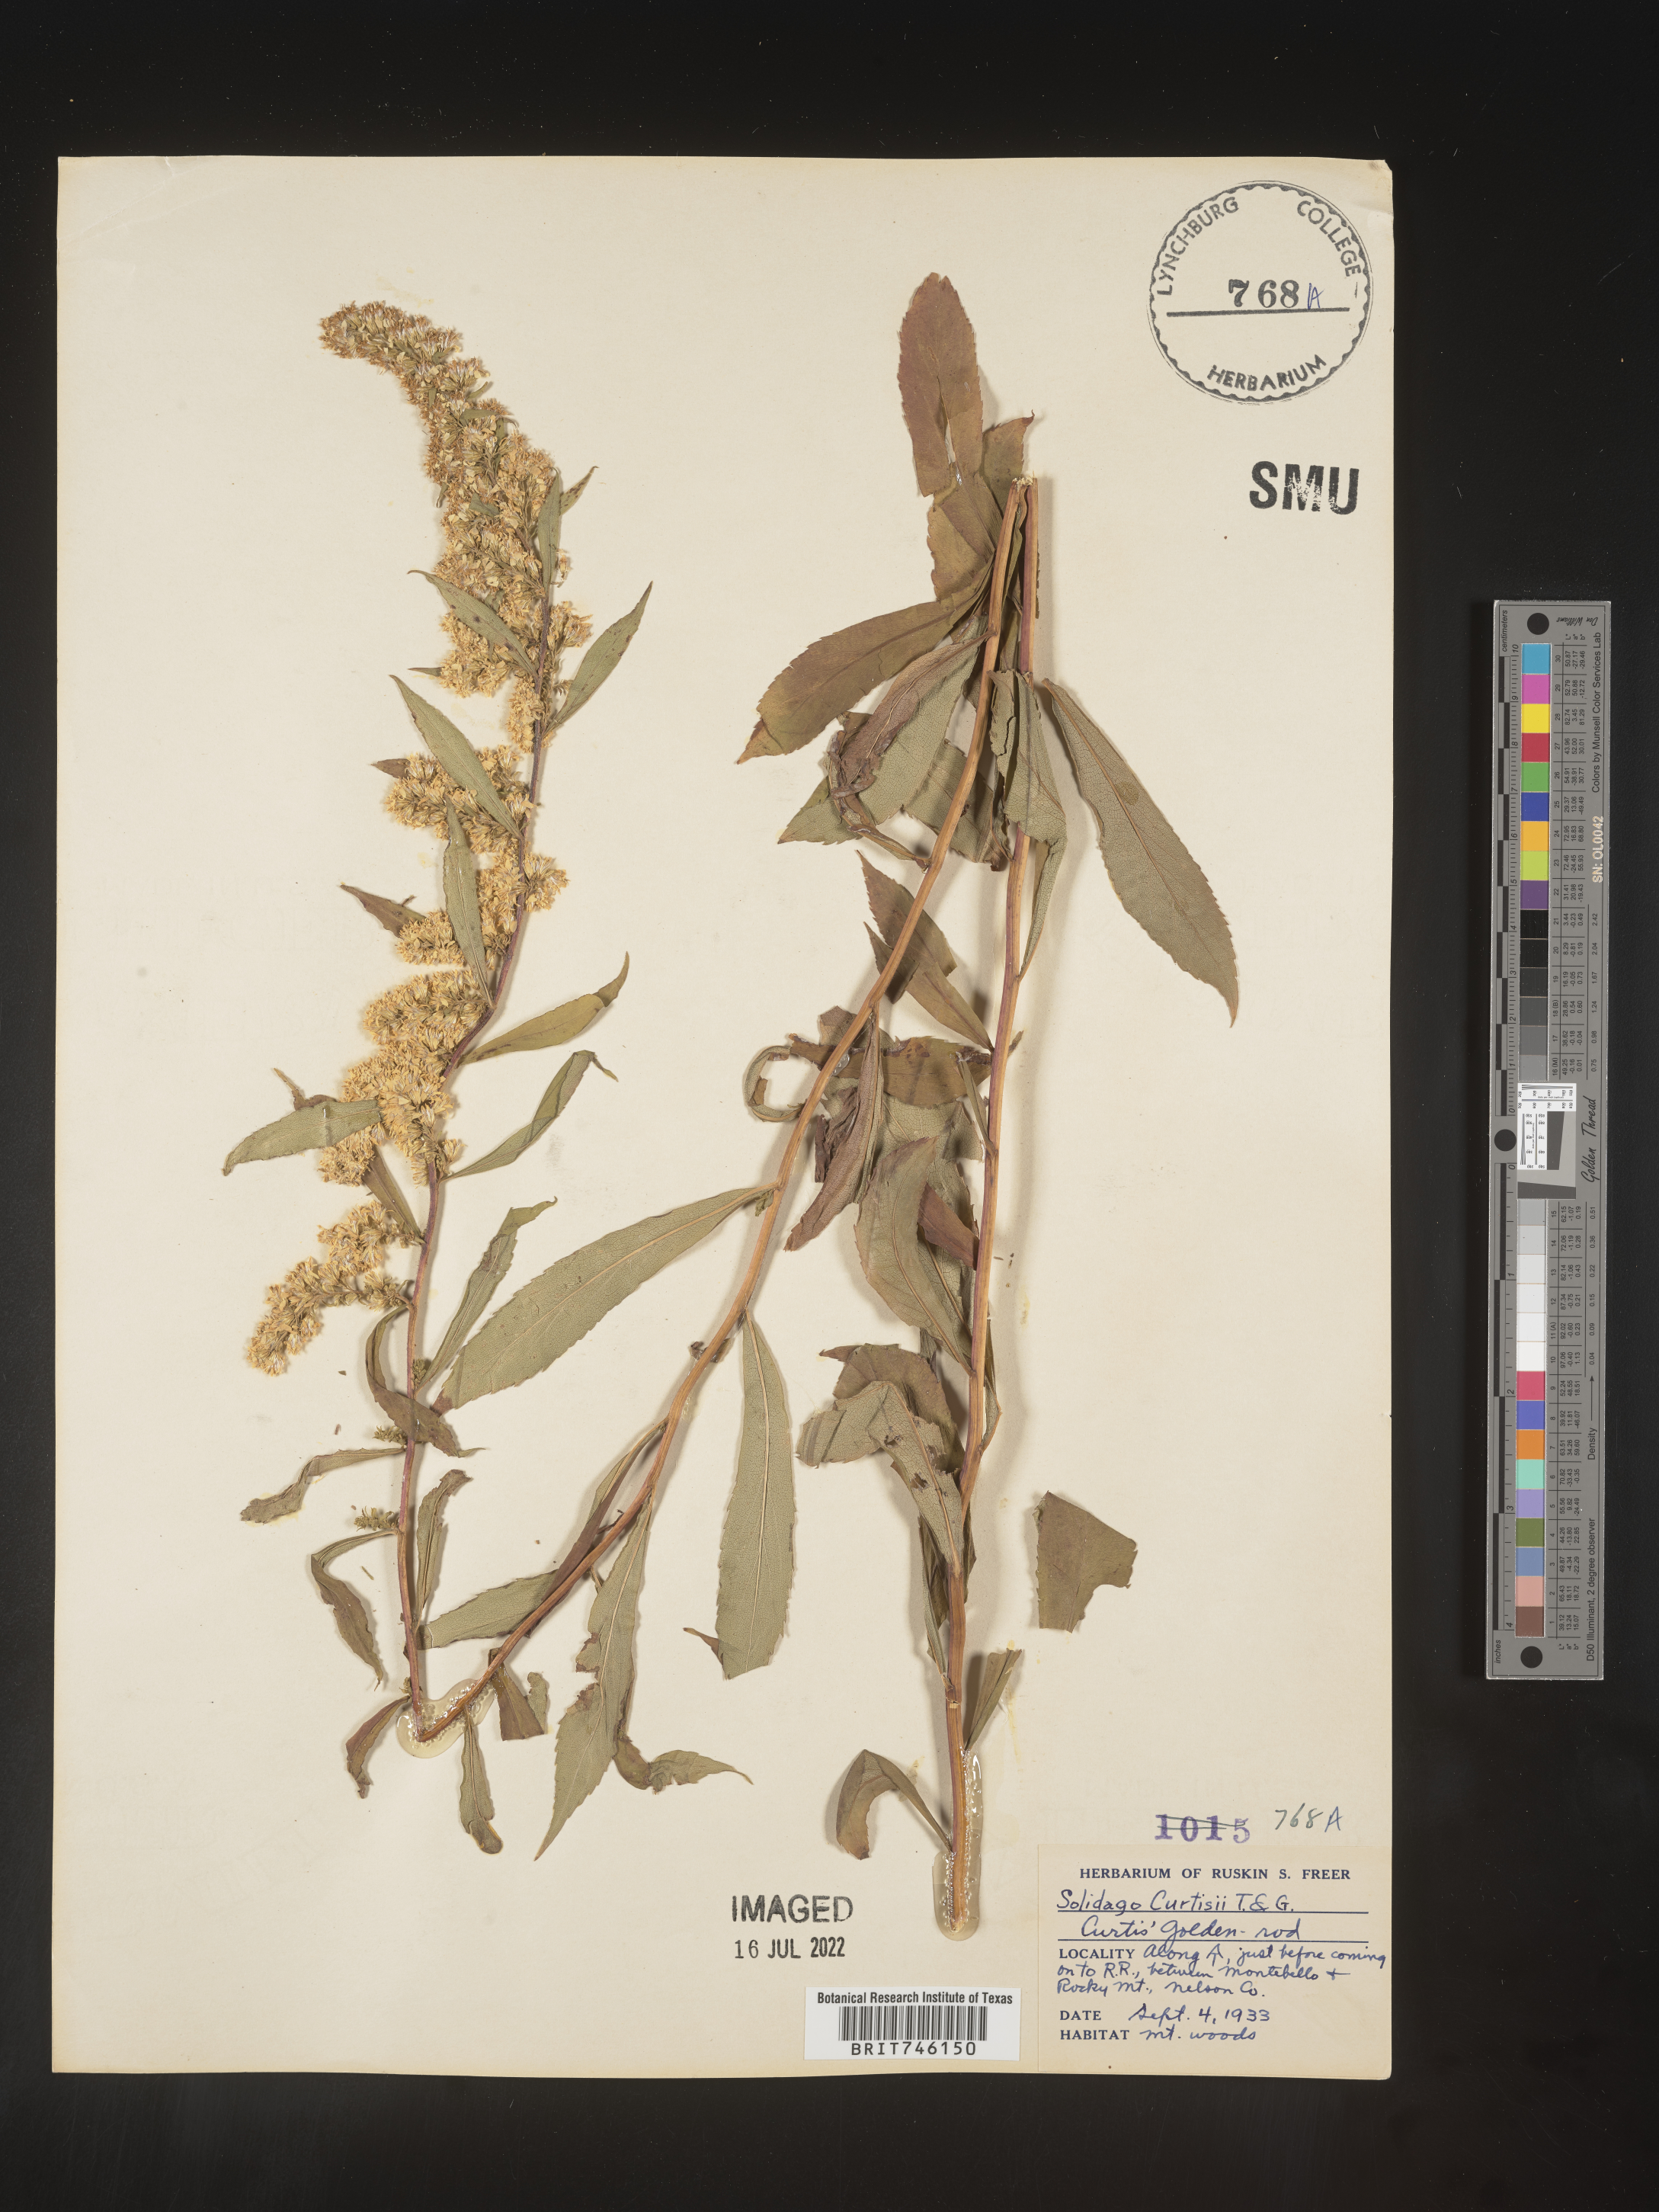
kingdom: Plantae
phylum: Tracheophyta
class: Magnoliopsida
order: Asterales
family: Asteraceae
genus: Solidago
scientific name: Solidago curtisii
